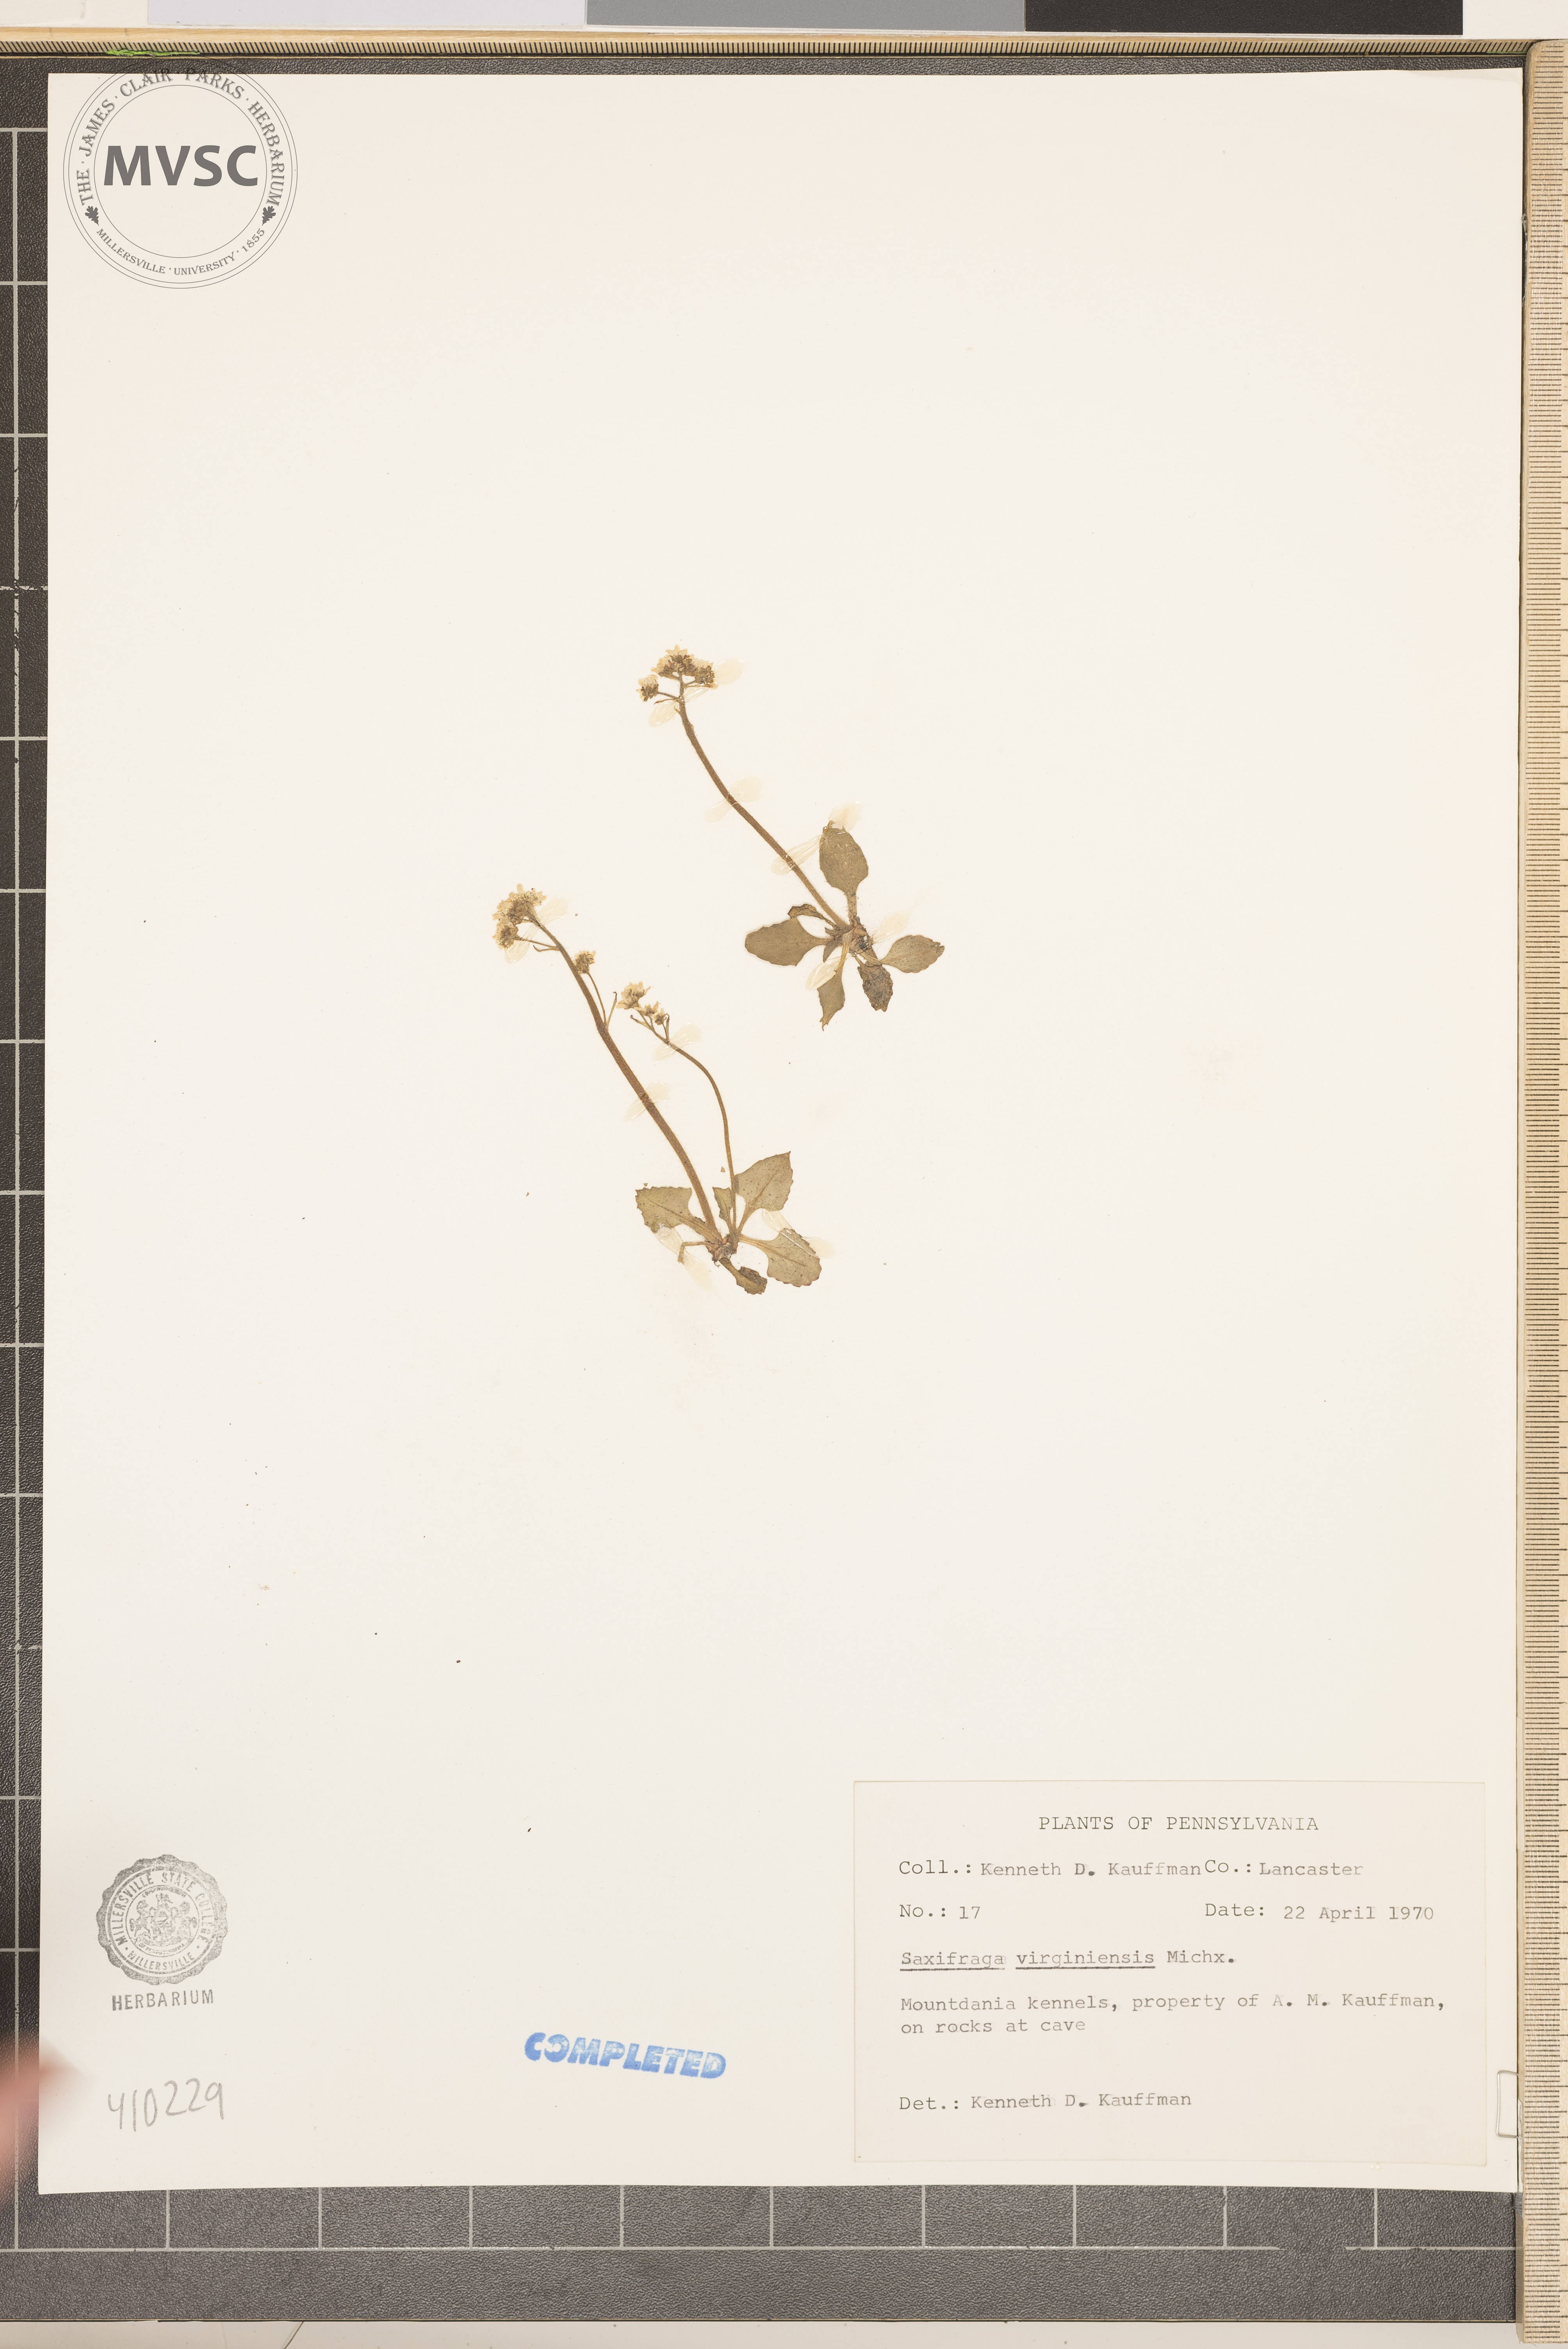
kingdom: Plantae
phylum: Tracheophyta
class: Magnoliopsida
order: Saxifragales
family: Saxifragaceae
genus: Micranthes
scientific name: Micranthes virginiensis
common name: Early saxifrage
